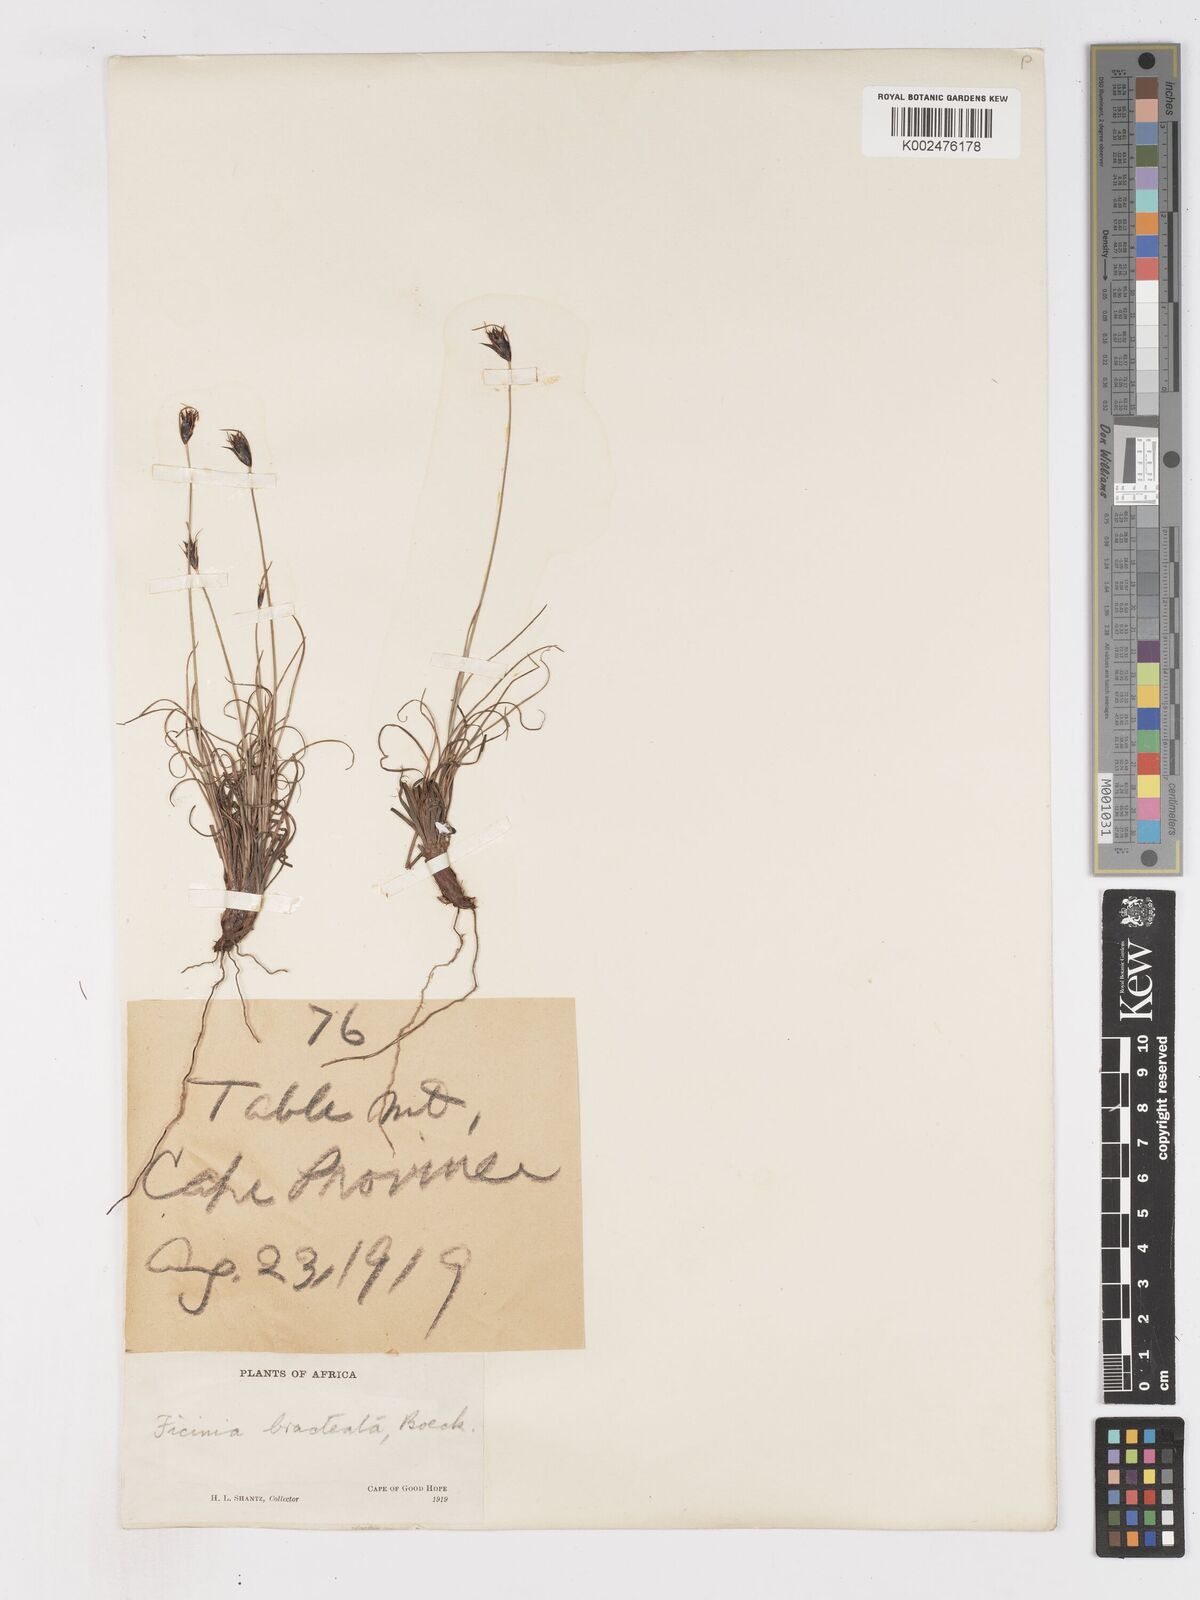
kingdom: Plantae
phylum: Tracheophyta
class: Liliopsida
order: Poales
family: Cyperaceae
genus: Ficinia
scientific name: Ficinia nigrescens
